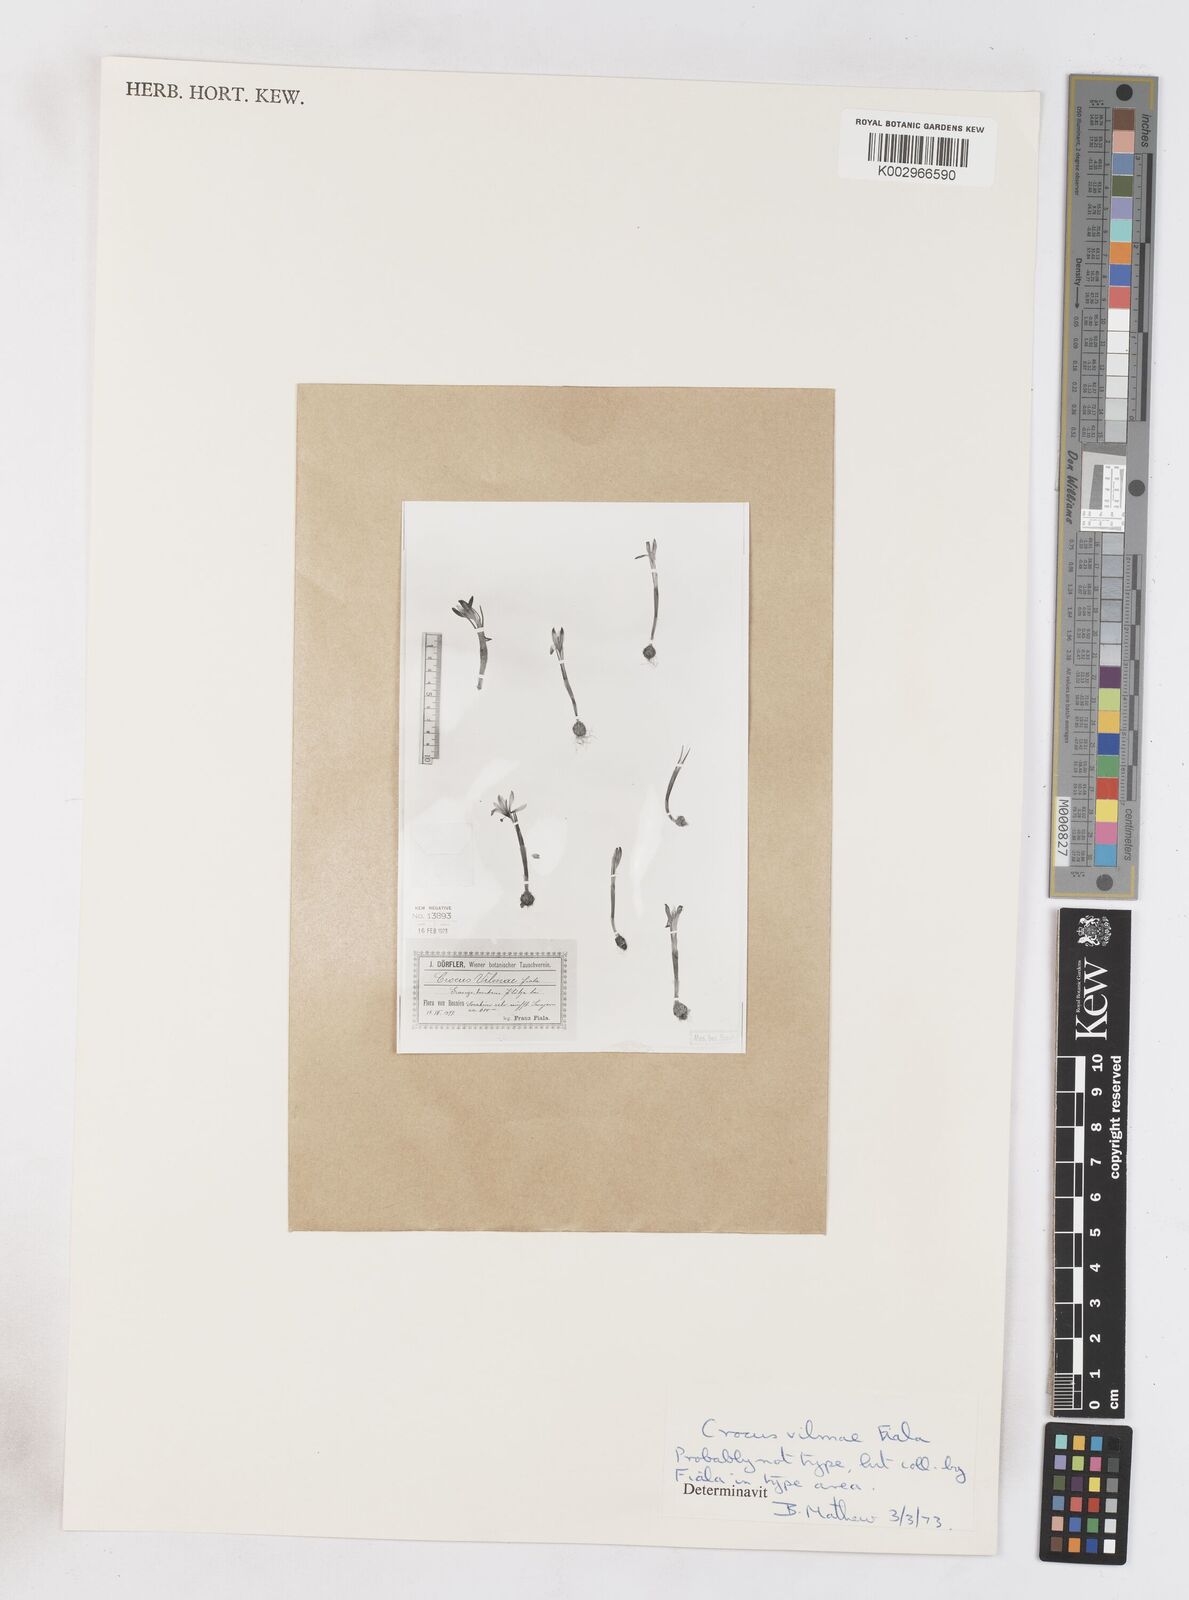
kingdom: Plantae
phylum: Tracheophyta
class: Liliopsida
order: Asparagales
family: Iridaceae
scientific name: Iridaceae
